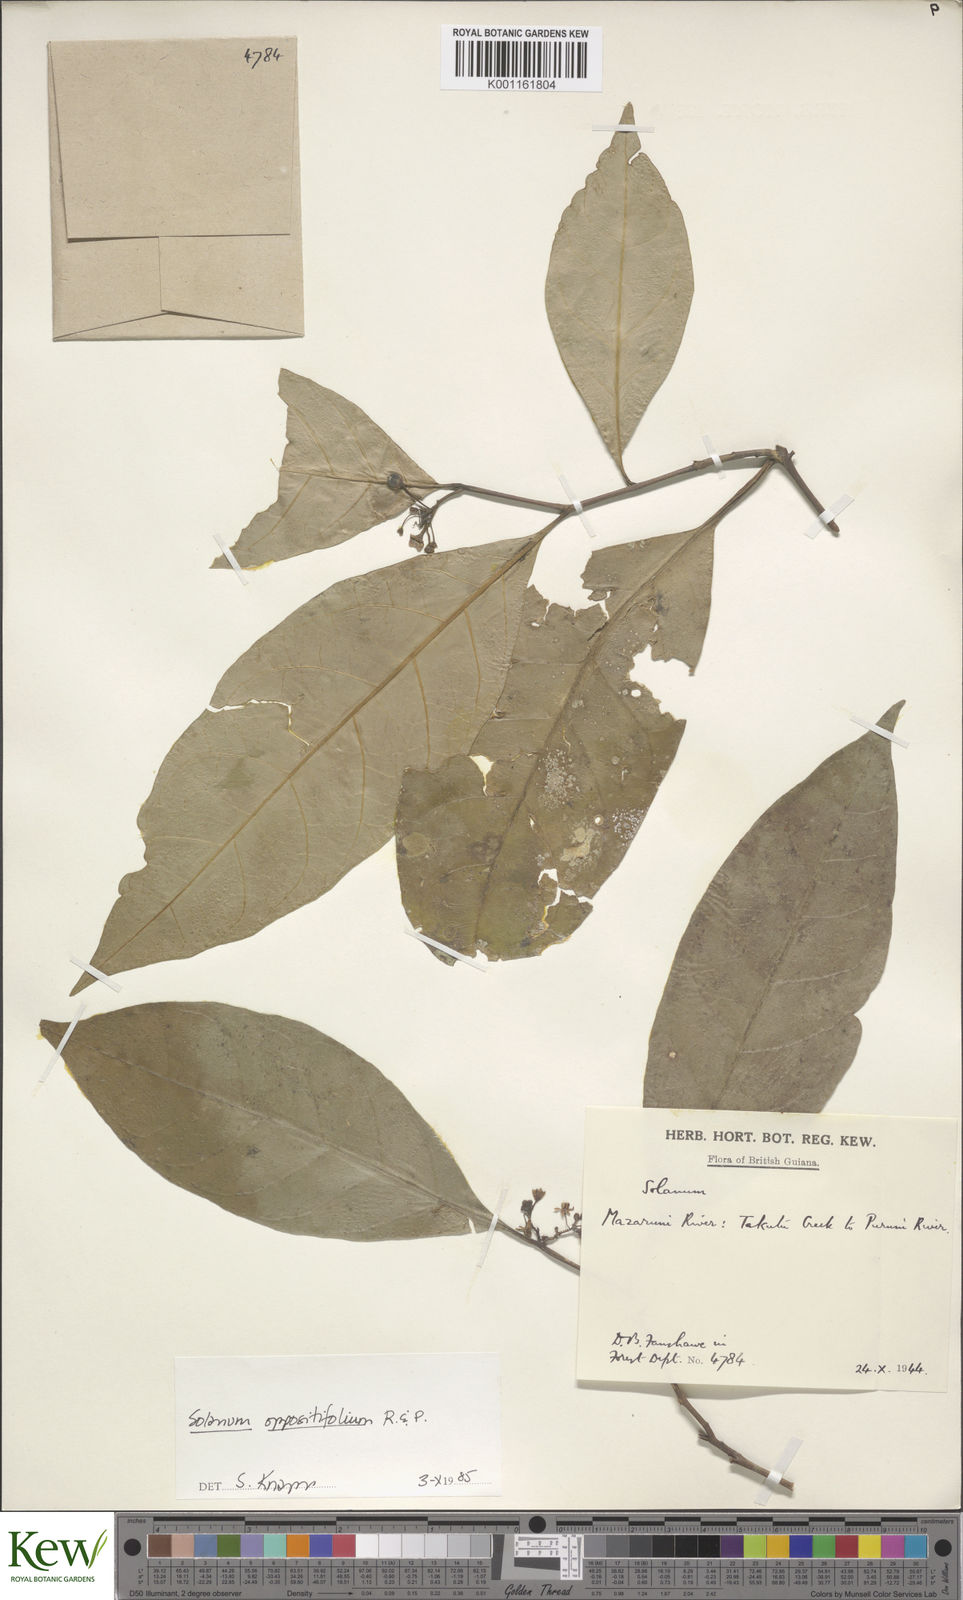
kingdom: Plantae
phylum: Tracheophyta
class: Magnoliopsida
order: Solanales
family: Solanaceae
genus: Solanum
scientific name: Solanum oppositifolium
